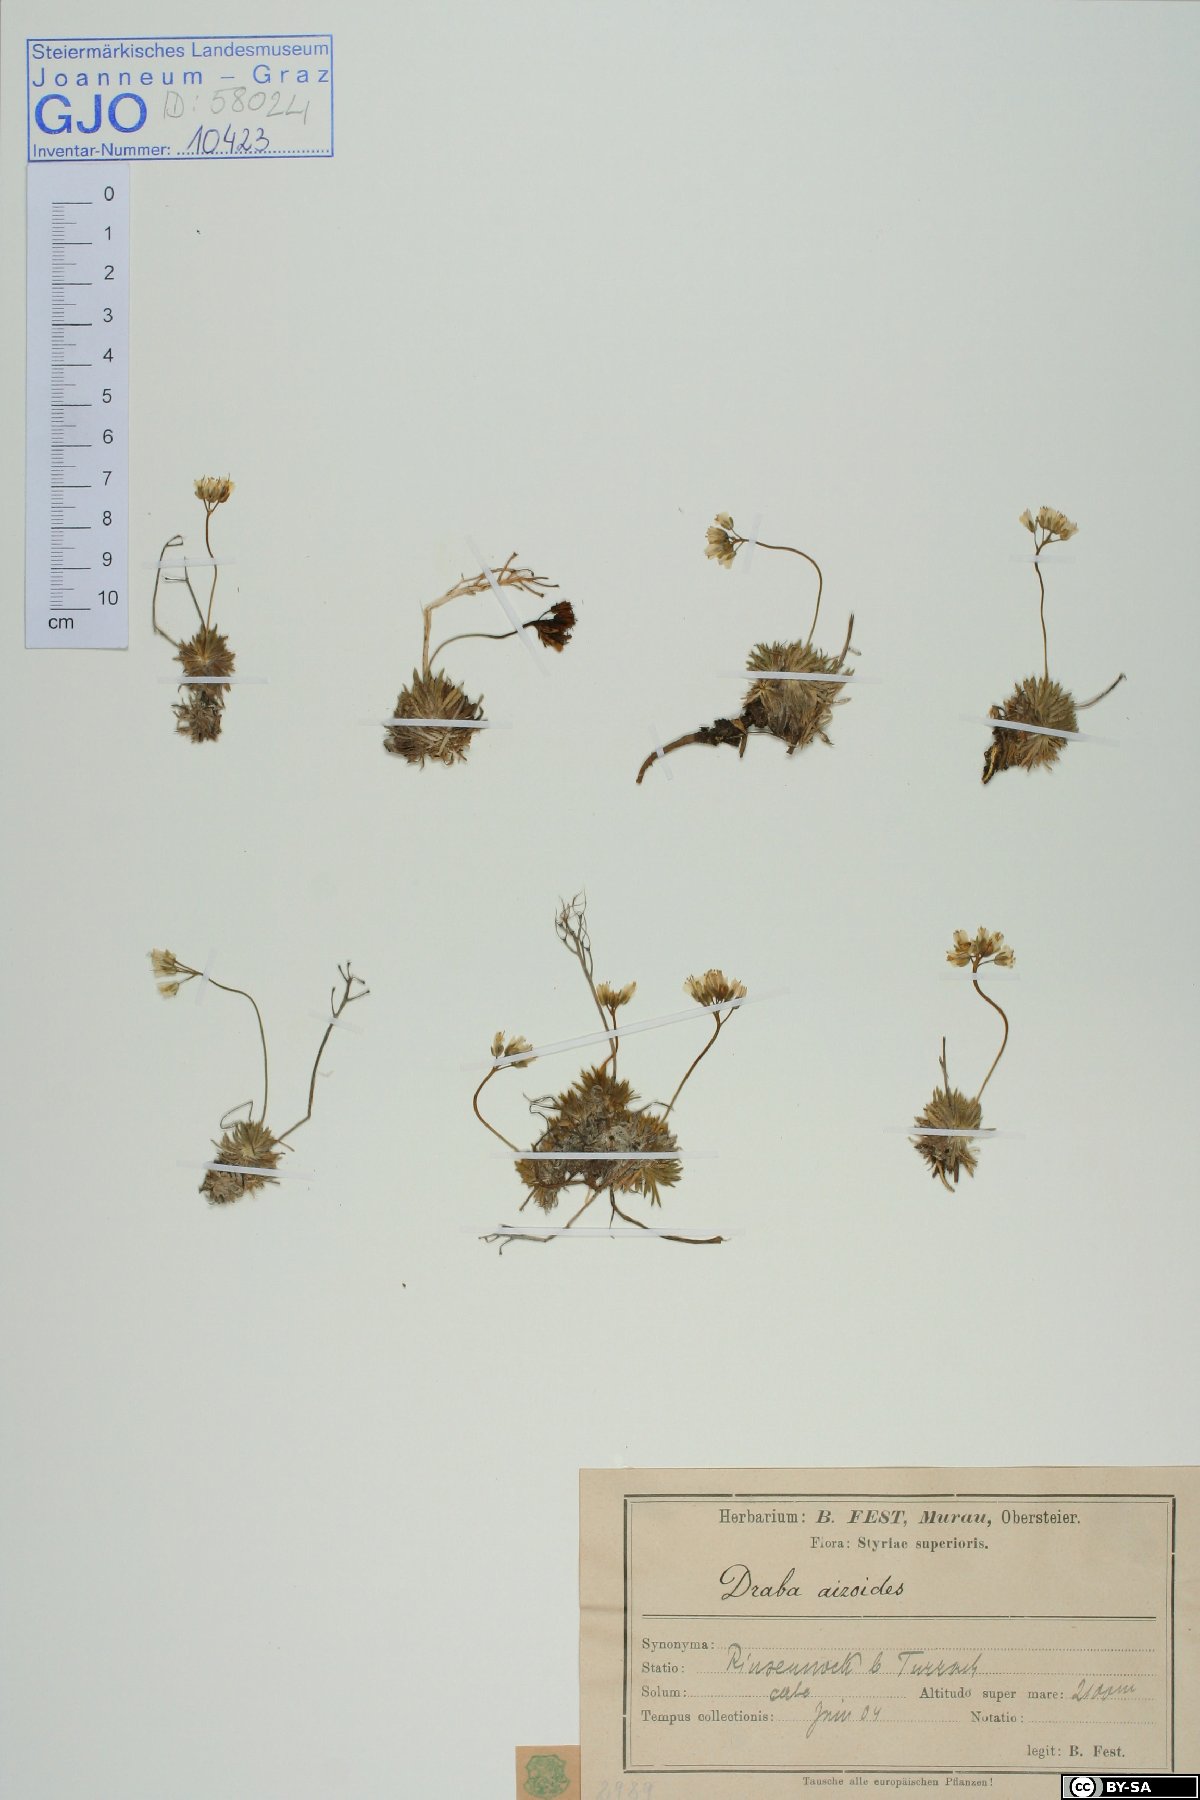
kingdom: Plantae
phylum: Tracheophyta
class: Magnoliopsida
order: Brassicales
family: Brassicaceae
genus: Draba
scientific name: Draba aizoides
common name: Yellow whitlowgrass
